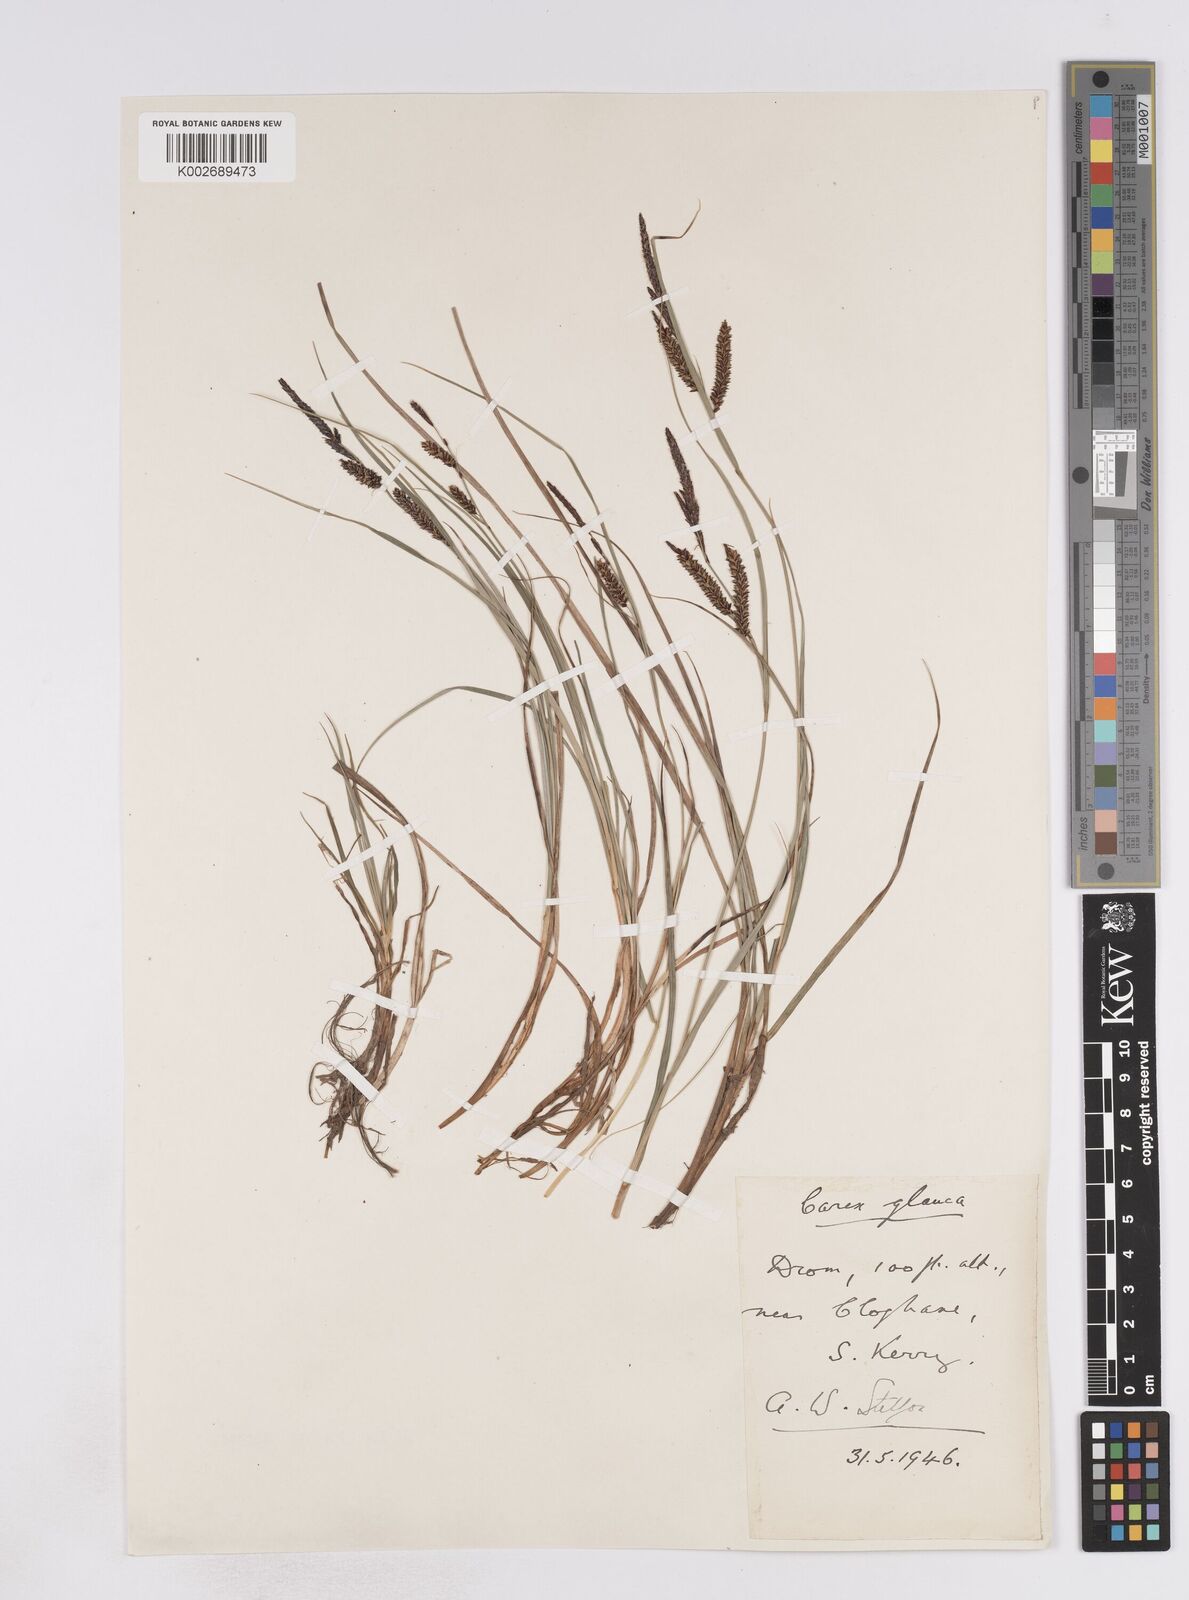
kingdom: Plantae
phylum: Tracheophyta
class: Liliopsida
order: Poales
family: Cyperaceae
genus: Carex
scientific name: Carex flacca
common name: Glaucous sedge
